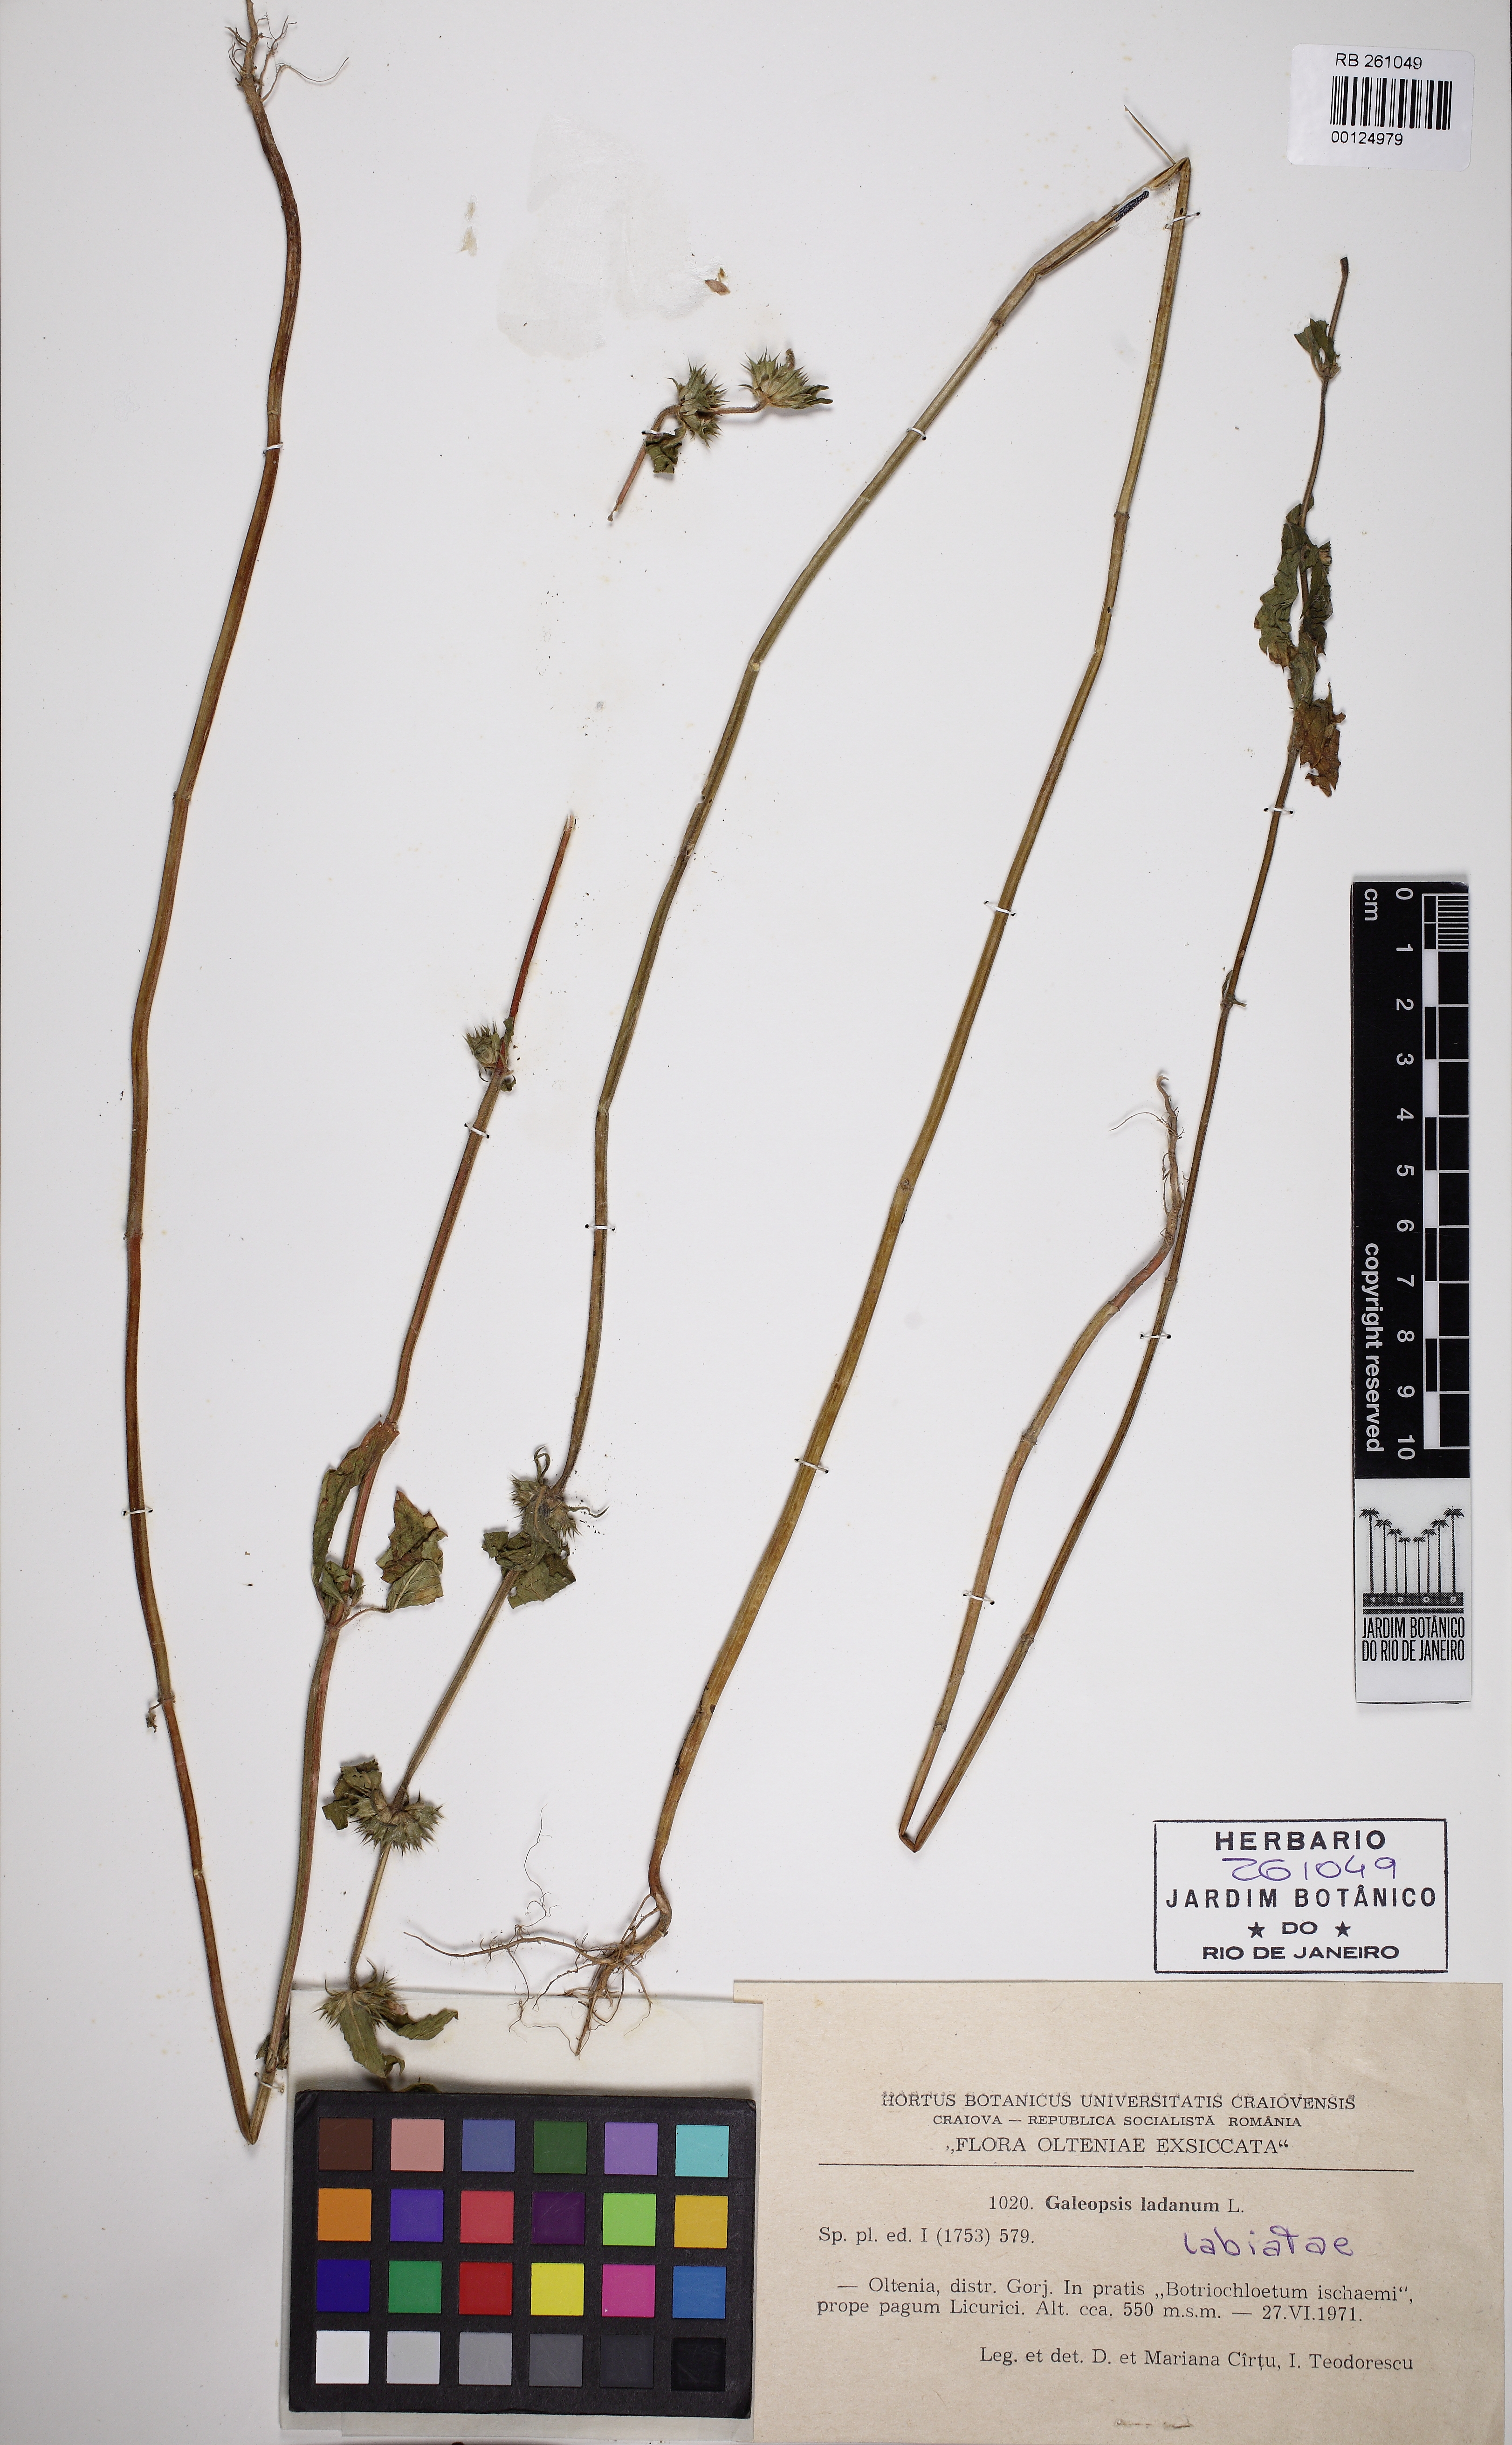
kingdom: Plantae
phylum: Tracheophyta
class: Magnoliopsida
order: Lamiales
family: Lamiaceae
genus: Galeopsis
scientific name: Galeopsis ladanum
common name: Broad-leaved hemp-nettle
